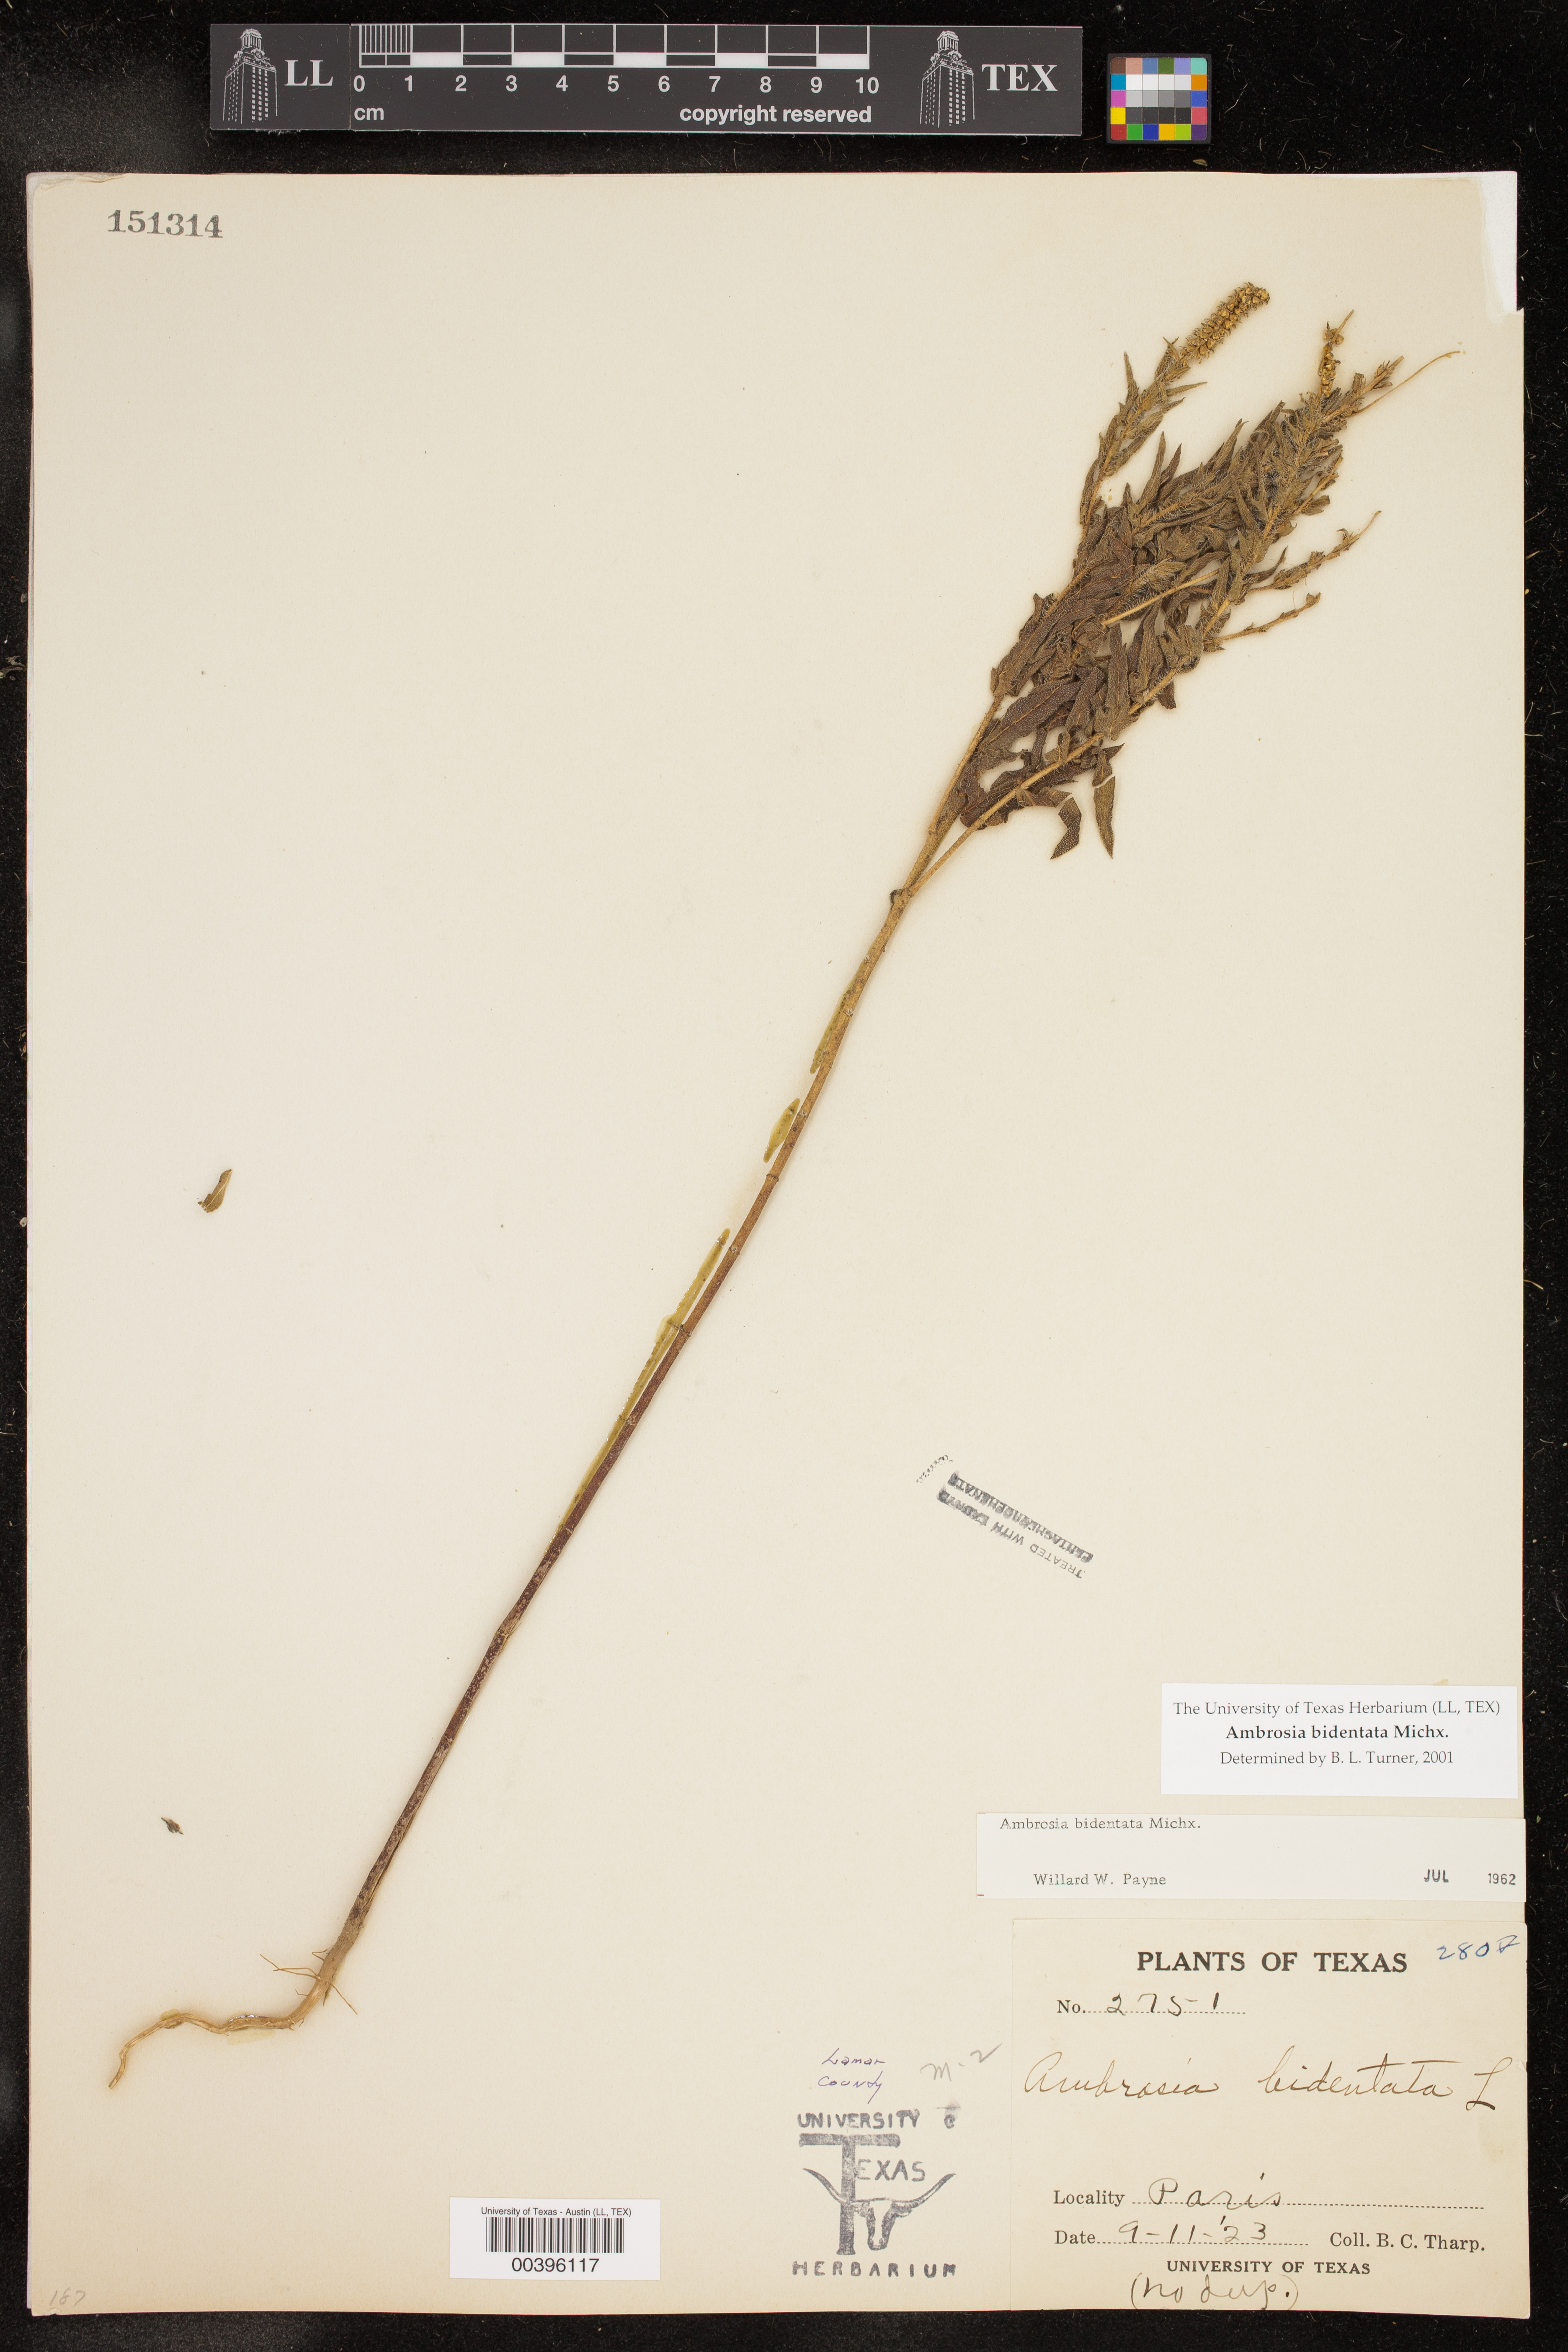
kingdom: Plantae
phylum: Tracheophyta
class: Magnoliopsida
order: Asterales
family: Asteraceae
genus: Ambrosia
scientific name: Ambrosia bidentata
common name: Southern ragweed
